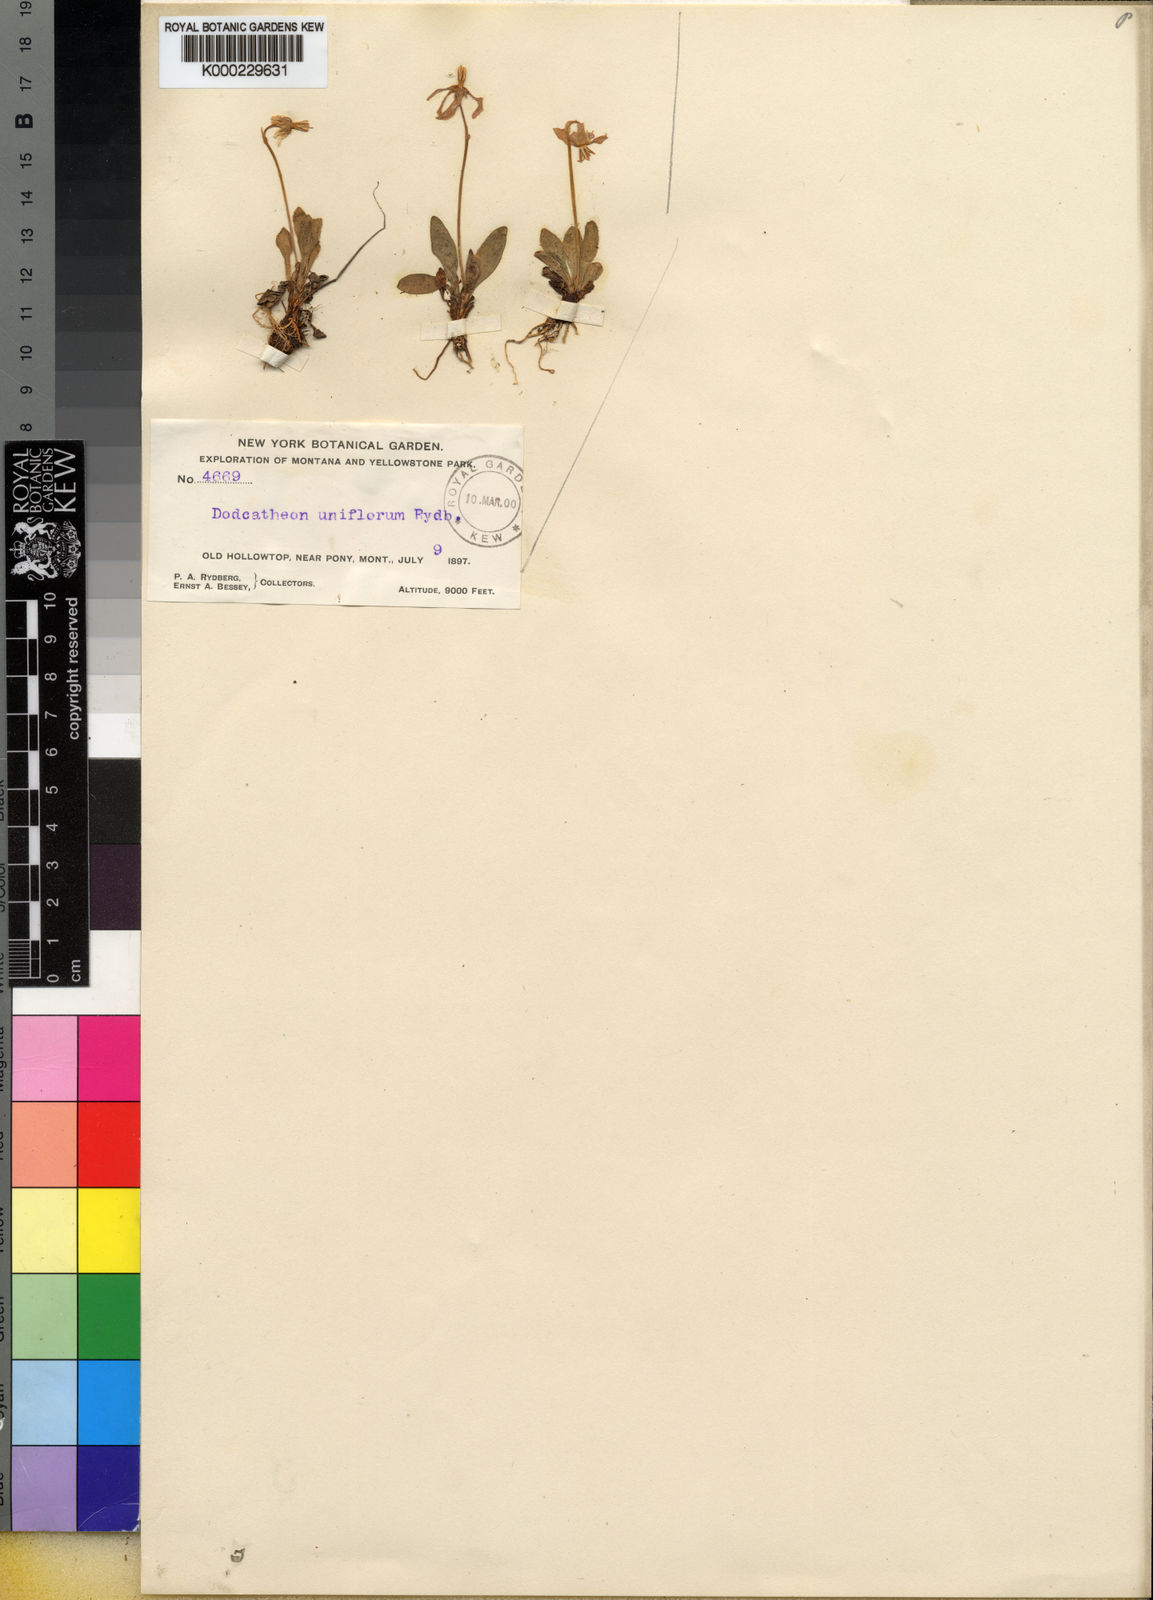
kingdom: Plantae
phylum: Tracheophyta
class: Magnoliopsida
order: Ericales
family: Primulaceae
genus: Dodecatheon
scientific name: Dodecatheon pulchellum
